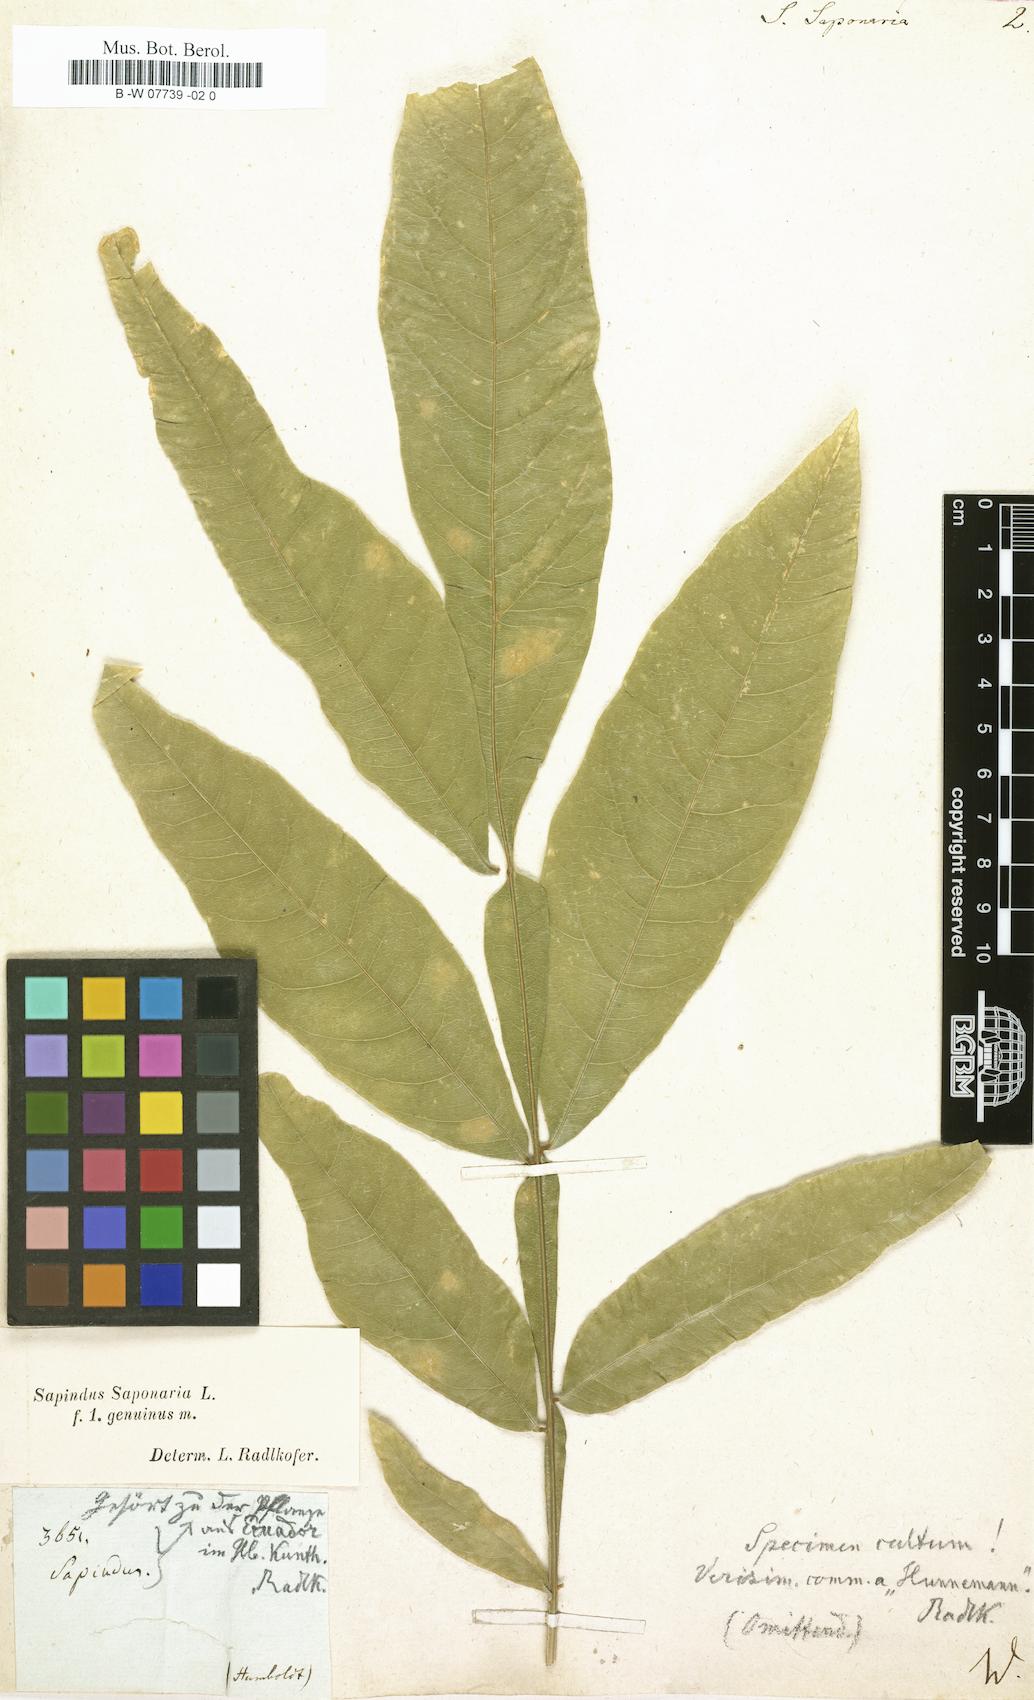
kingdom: Plantae
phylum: Tracheophyta
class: Magnoliopsida
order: Sapindales
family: Sapindaceae
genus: Sapindus
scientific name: Sapindus saponaria
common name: Wingleaf soapberry
